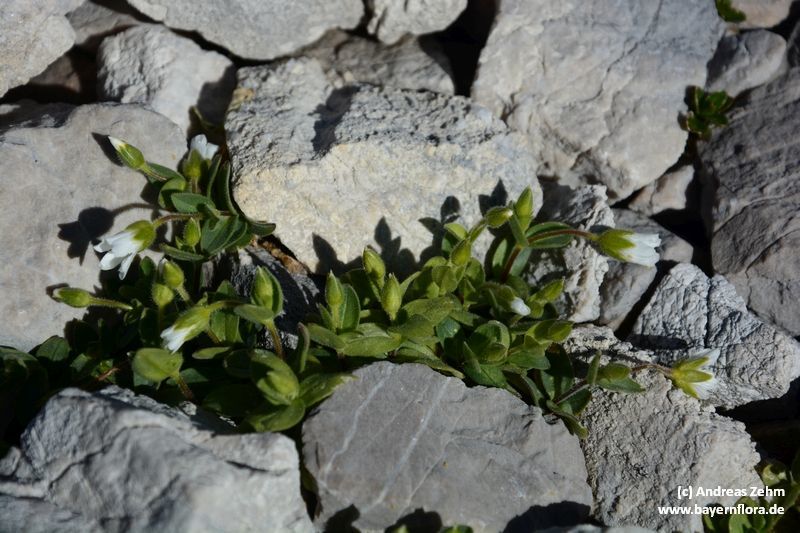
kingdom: Plantae
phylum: Tracheophyta
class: Magnoliopsida
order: Caryophyllales
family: Caryophyllaceae
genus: Cerastium
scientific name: Cerastium latifolium
